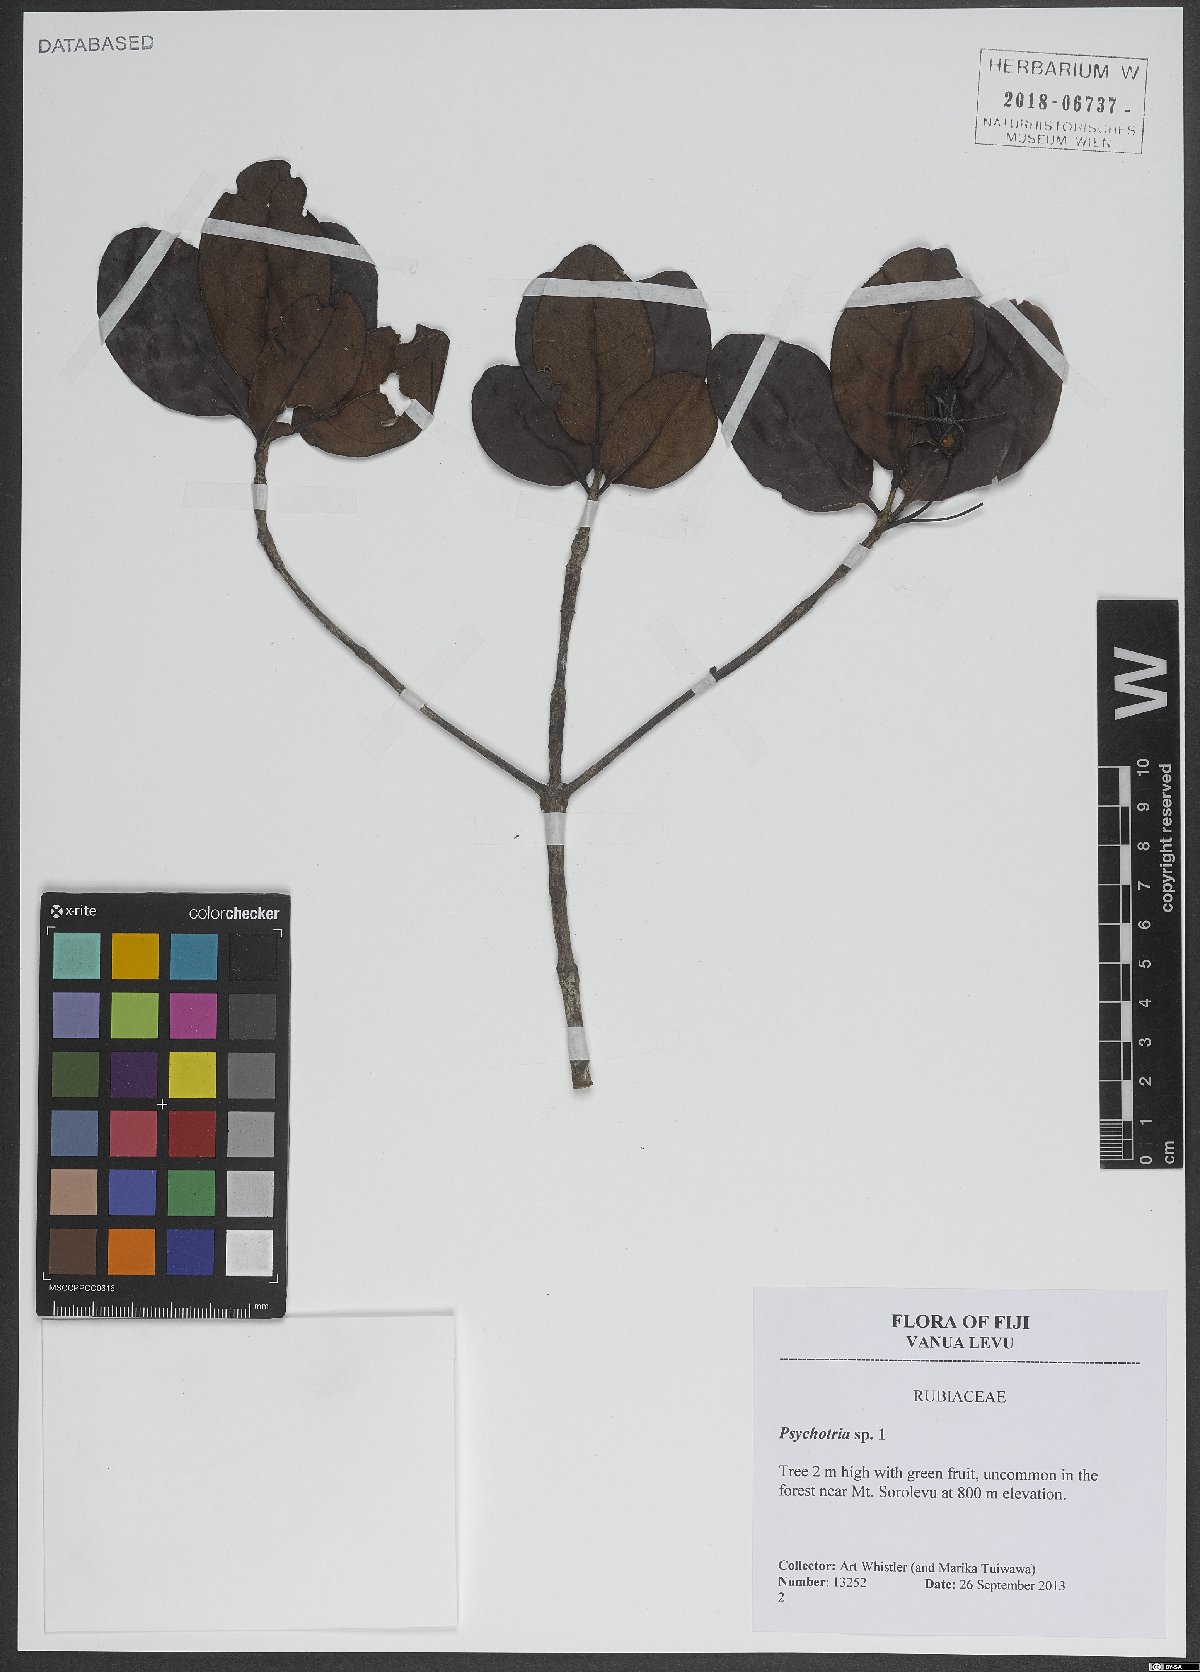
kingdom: Plantae
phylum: Tracheophyta
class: Magnoliopsida
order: Gentianales
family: Rubiaceae
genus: Psychotria
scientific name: Psychotria
